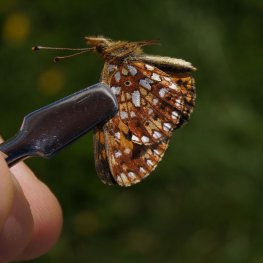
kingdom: Animalia
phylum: Arthropoda
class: Insecta
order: Lepidoptera
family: Nymphalidae
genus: Boloria
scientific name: Boloria selene
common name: Silver-bordered Fritillary
